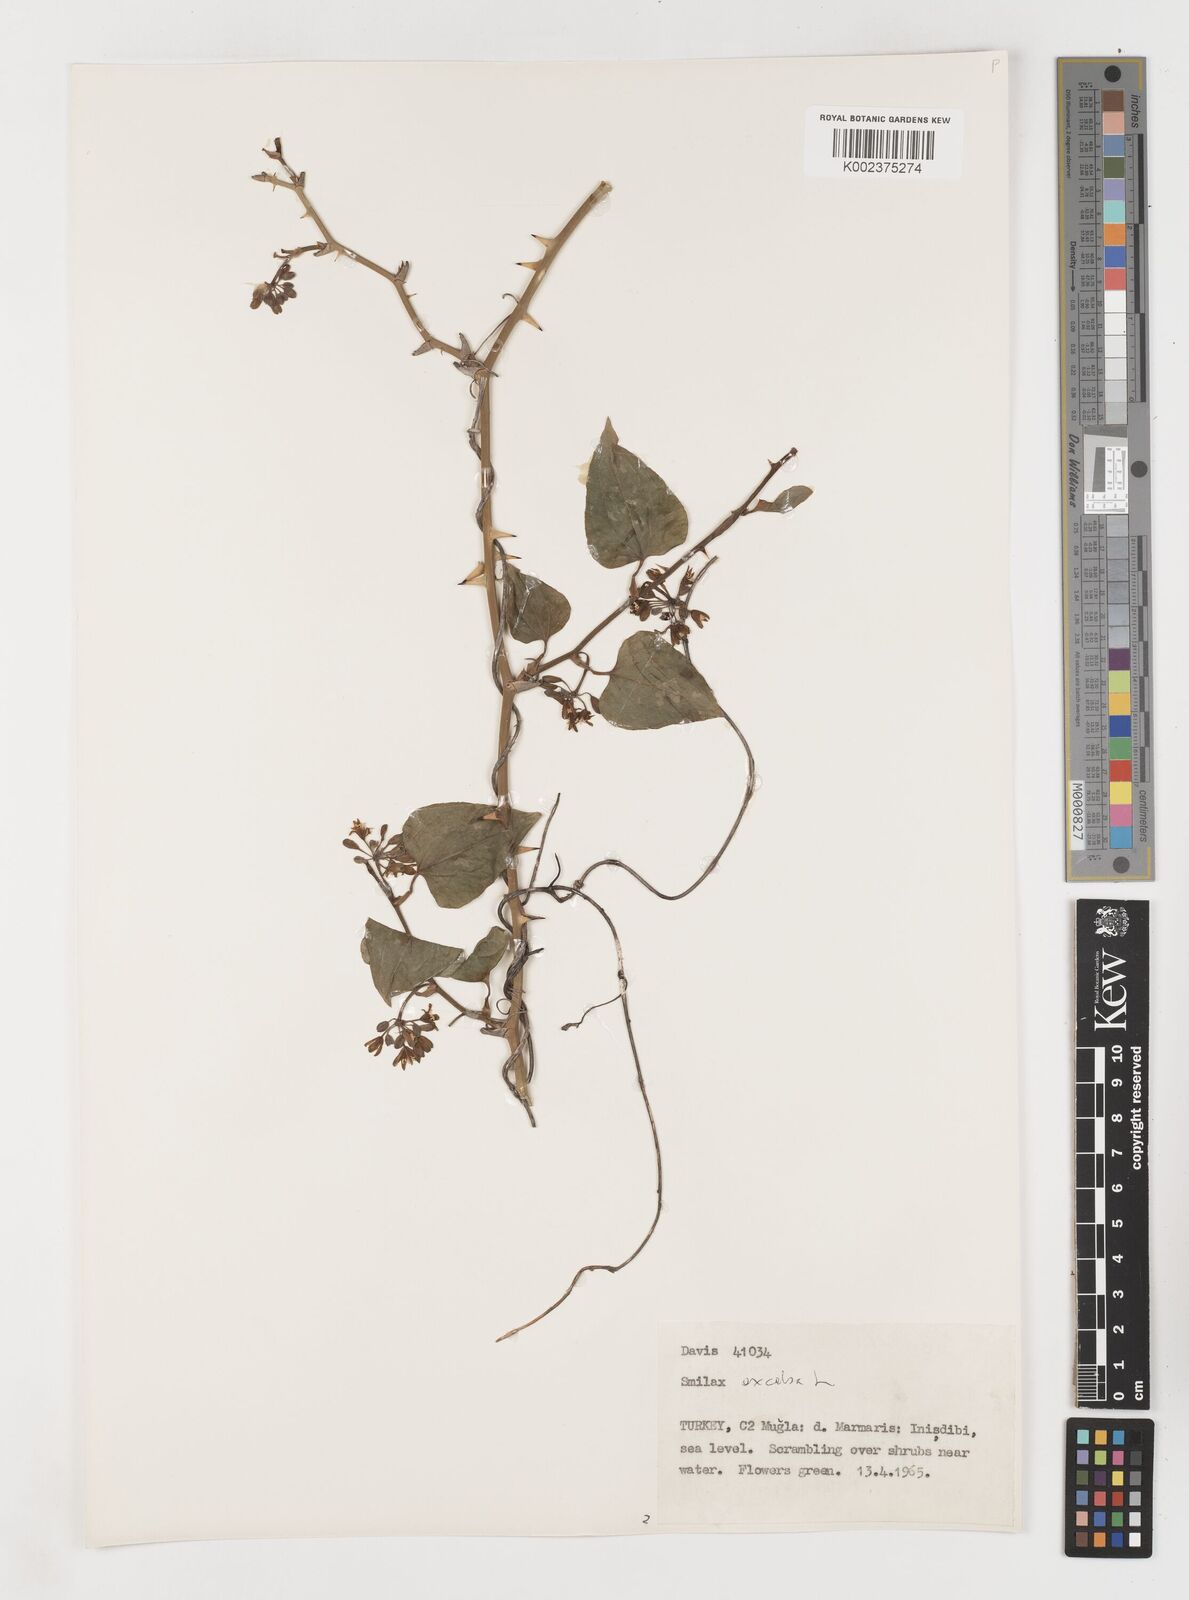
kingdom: Plantae
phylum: Tracheophyta
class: Liliopsida
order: Liliales
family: Smilacaceae
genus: Smilax
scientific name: Smilax excelsa
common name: Larger smilax
